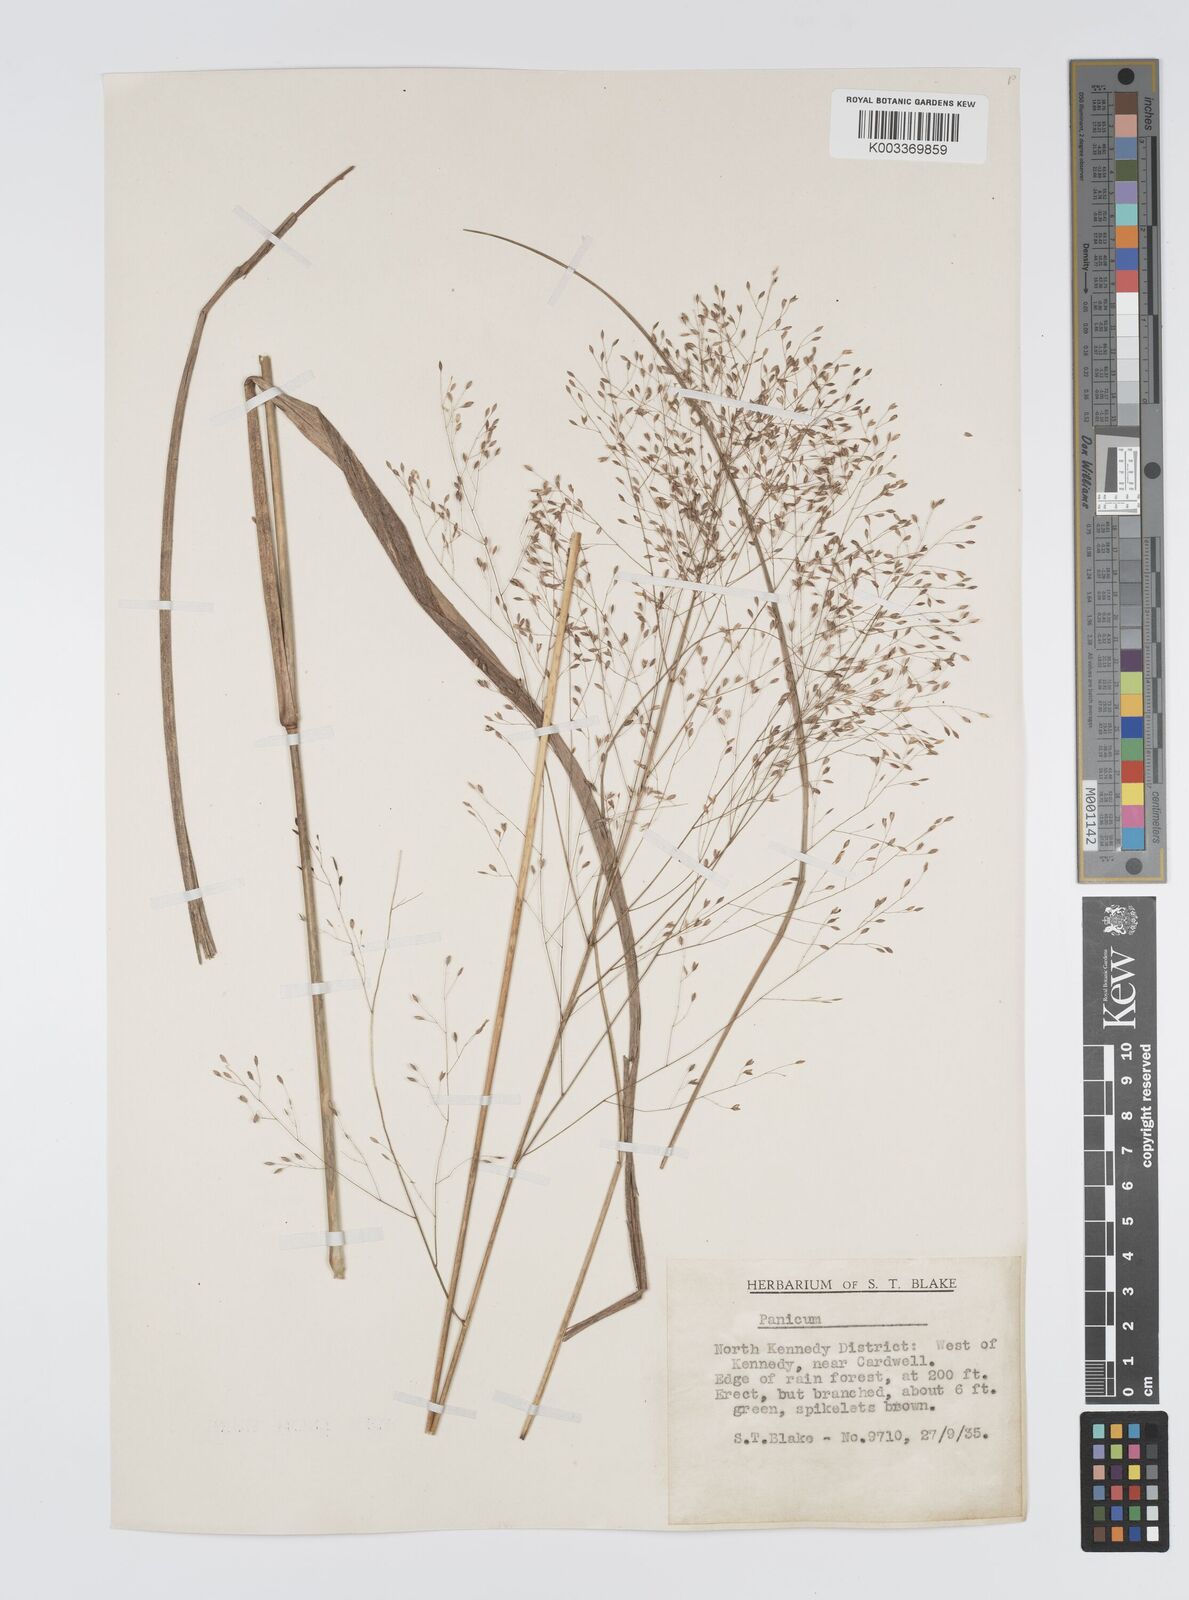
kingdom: Plantae
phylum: Tracheophyta
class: Liliopsida
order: Poales
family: Poaceae
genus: Panicum
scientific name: Panicum mitchellii
